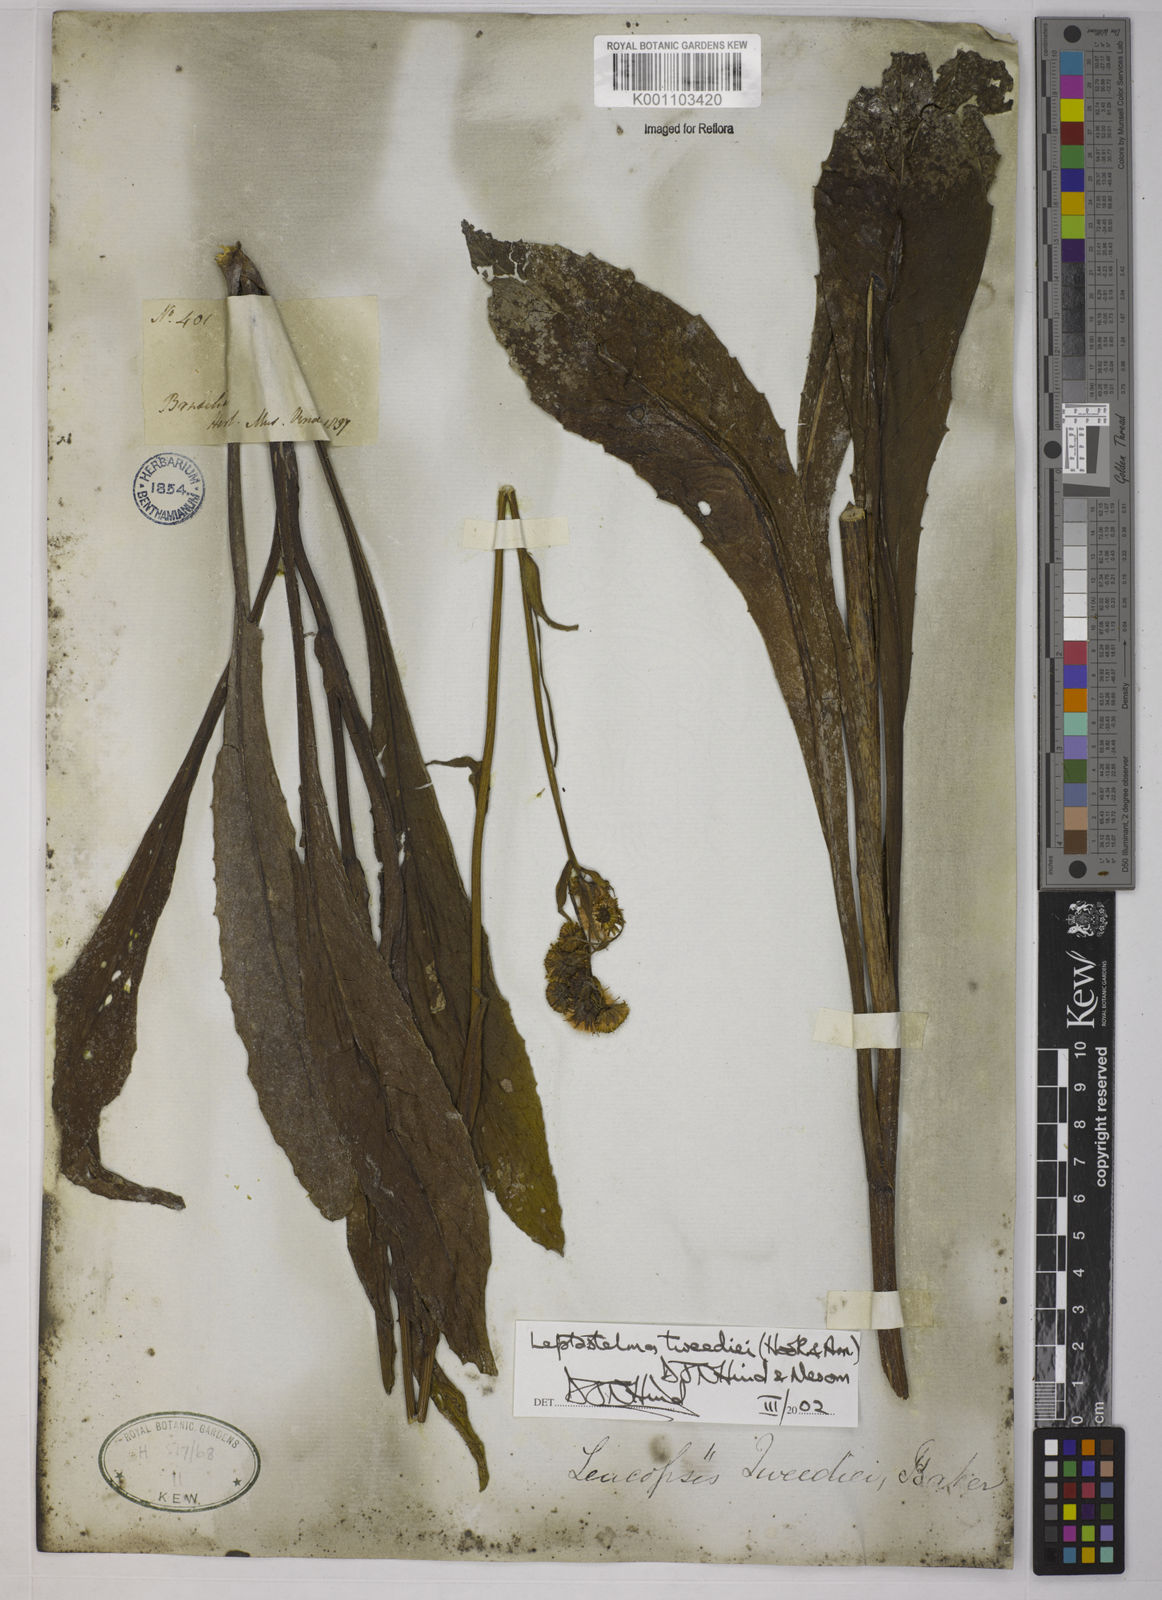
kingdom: Plantae
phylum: Tracheophyta
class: Magnoliopsida
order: Asterales
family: Asteraceae
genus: Leptostelma
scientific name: Leptostelma tweediei
